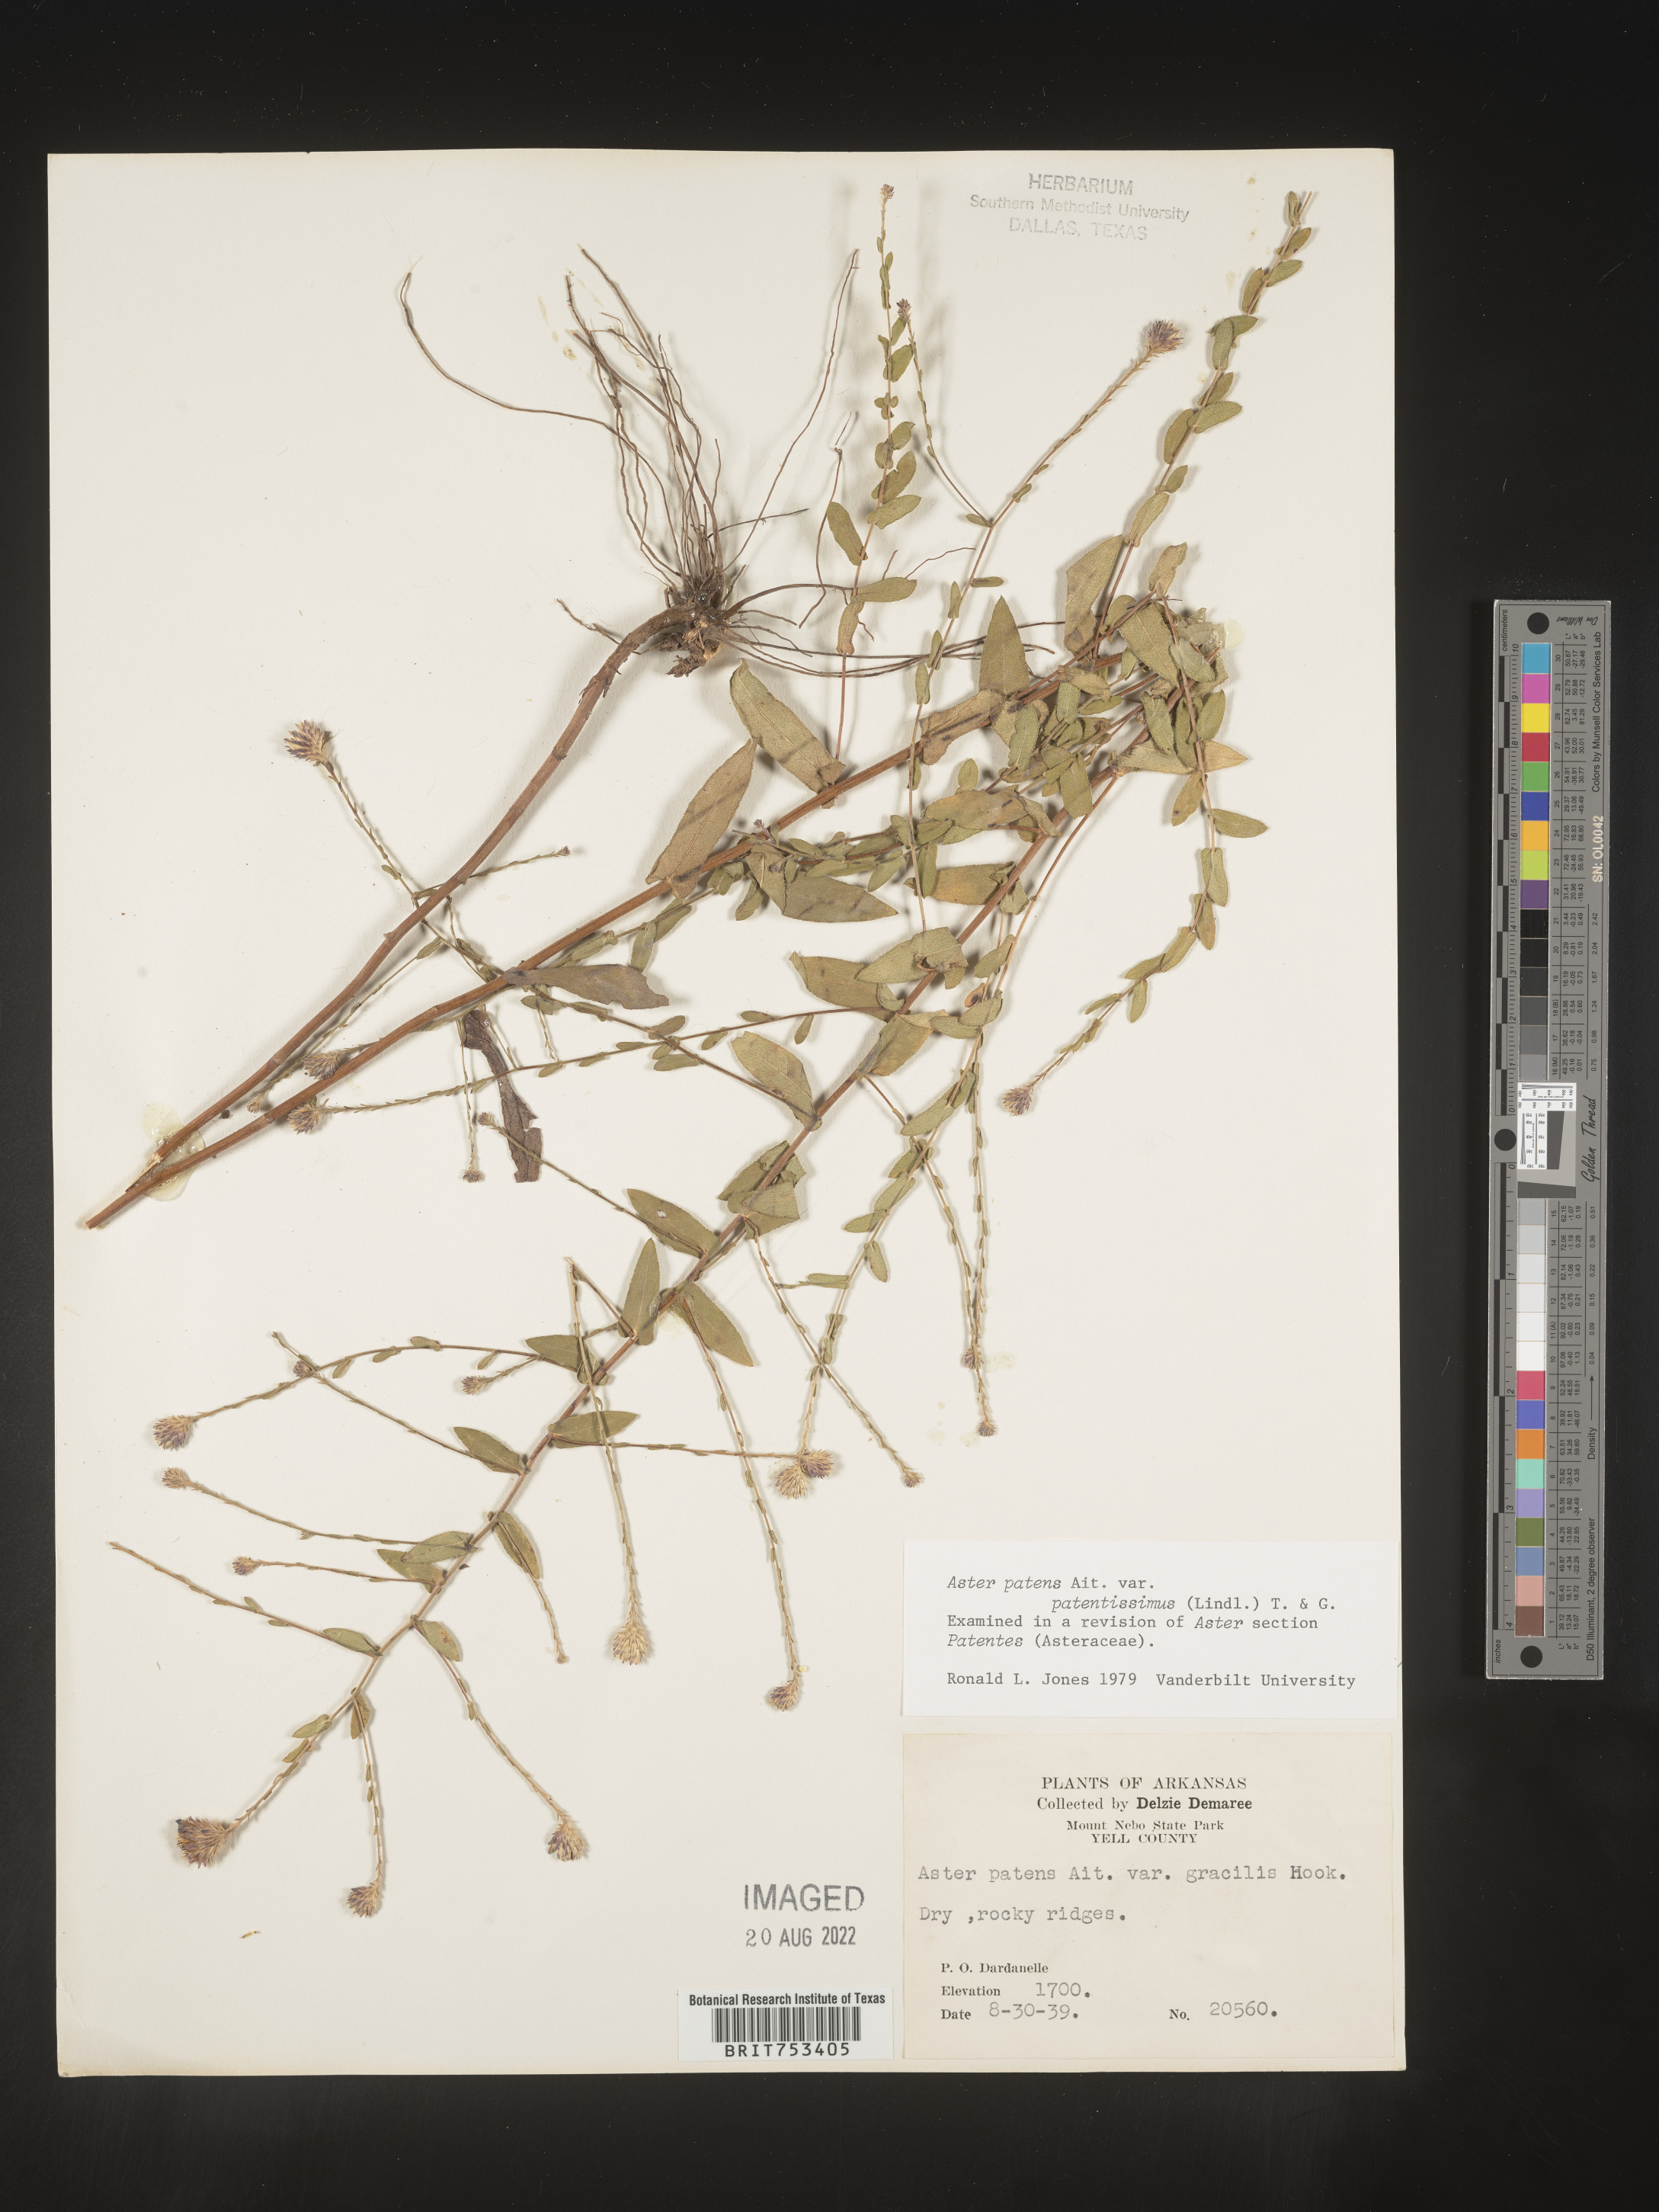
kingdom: Plantae
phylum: Tracheophyta
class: Magnoliopsida
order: Asterales
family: Asteraceae
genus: Symphyotrichum
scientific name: Symphyotrichum patens
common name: Late purple aster
